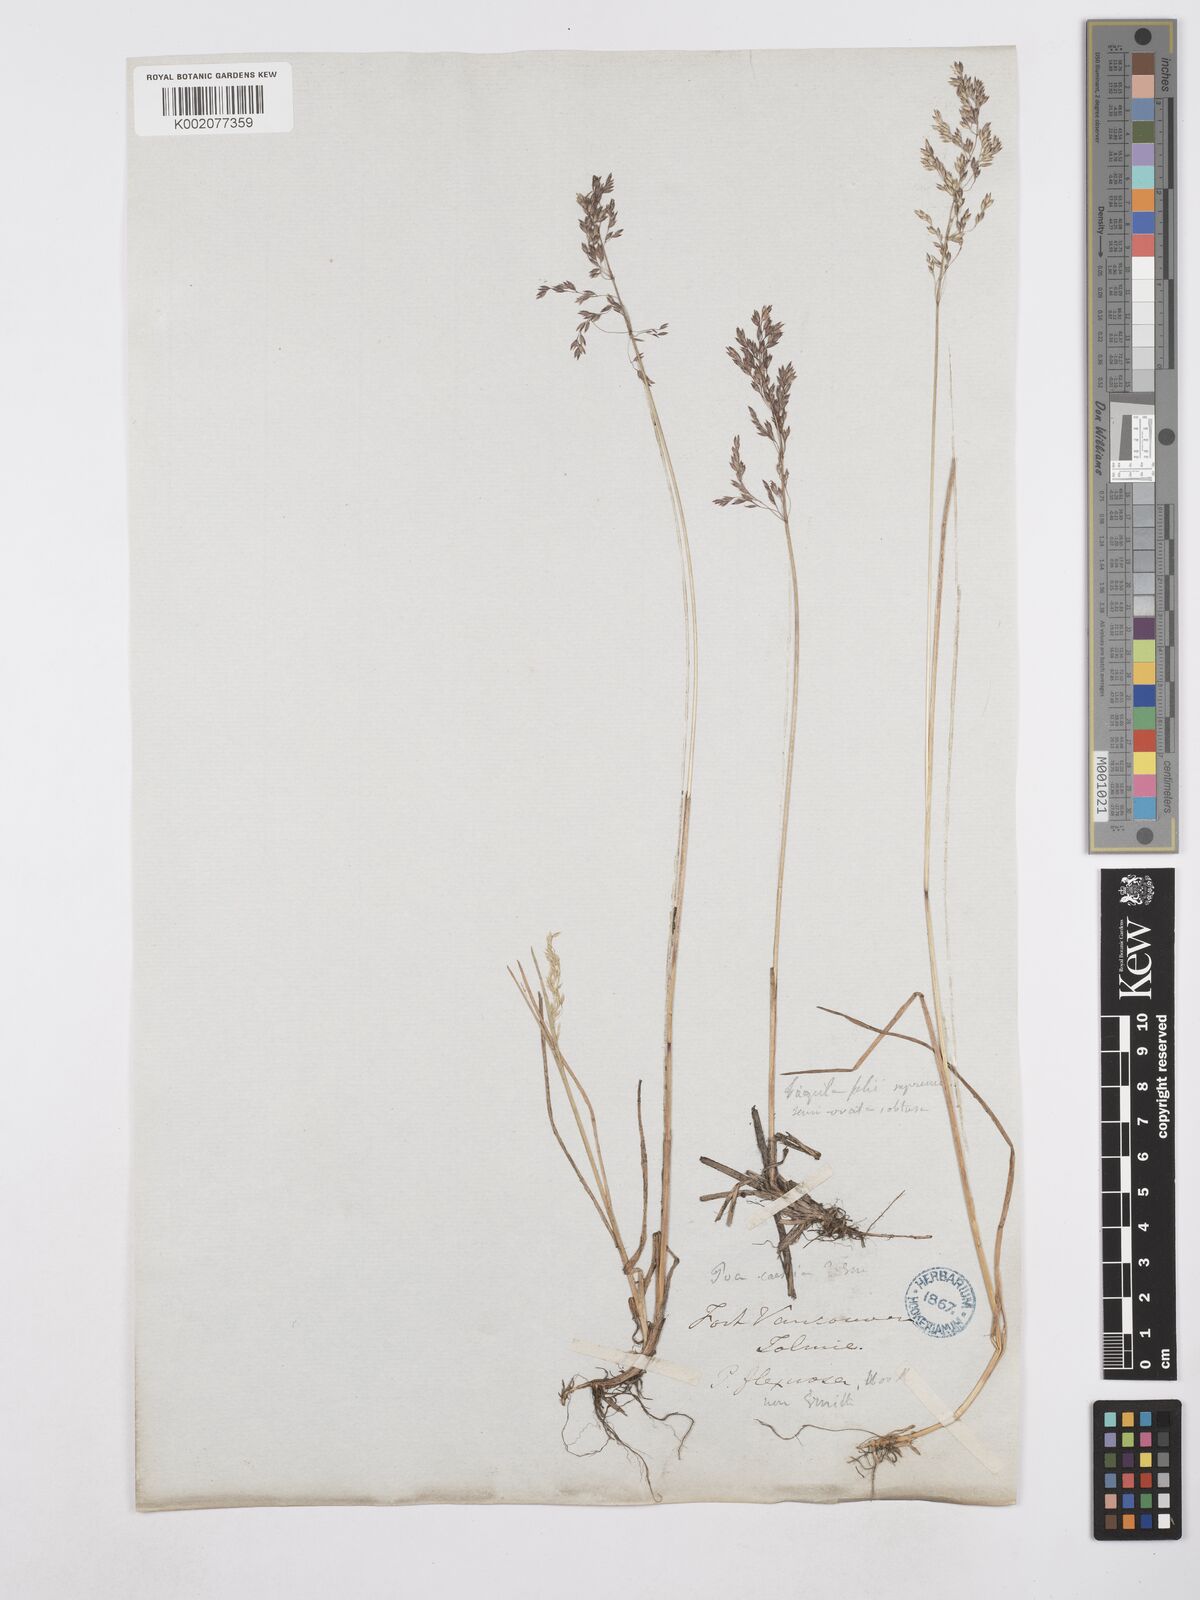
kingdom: Plantae
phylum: Tracheophyta
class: Liliopsida
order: Poales
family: Poaceae
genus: Poa
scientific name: Poa glauca
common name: Glaucous bluegrass
